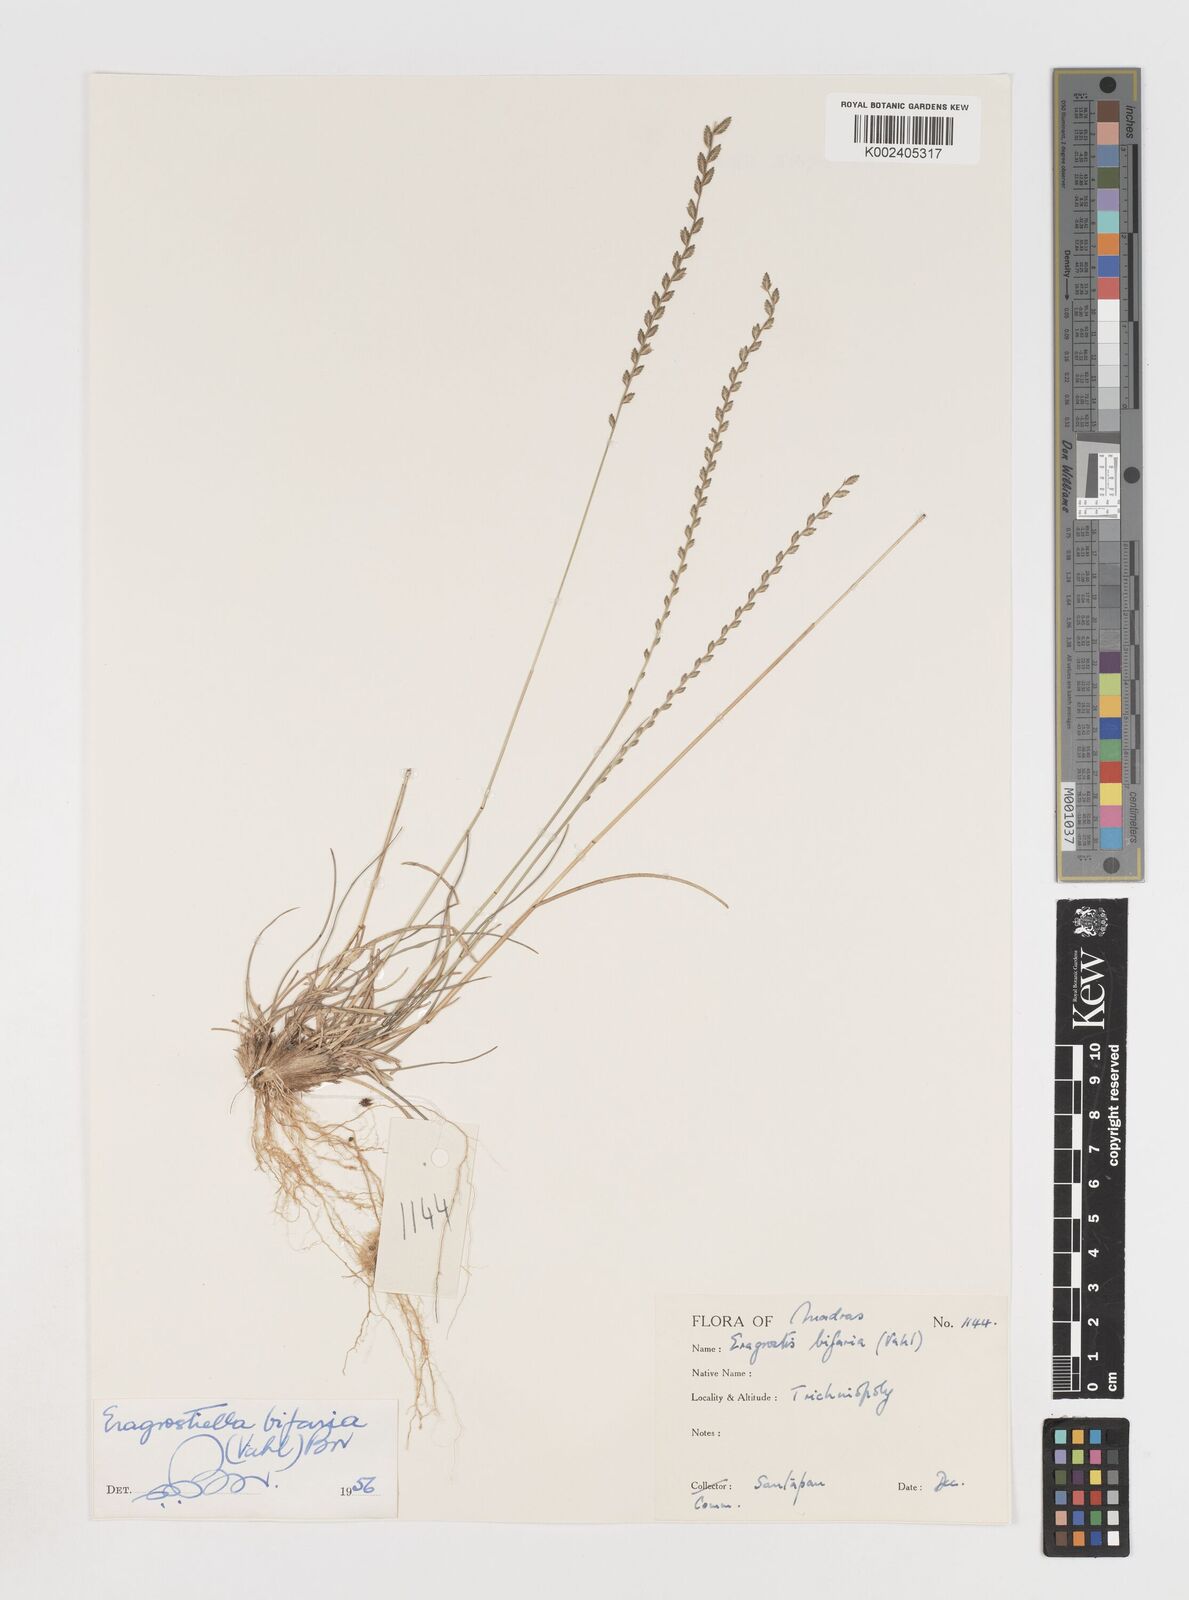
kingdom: Plantae
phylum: Tracheophyta
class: Liliopsida
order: Poales
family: Poaceae
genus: Eragrostiella
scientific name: Eragrostiella bifaria
